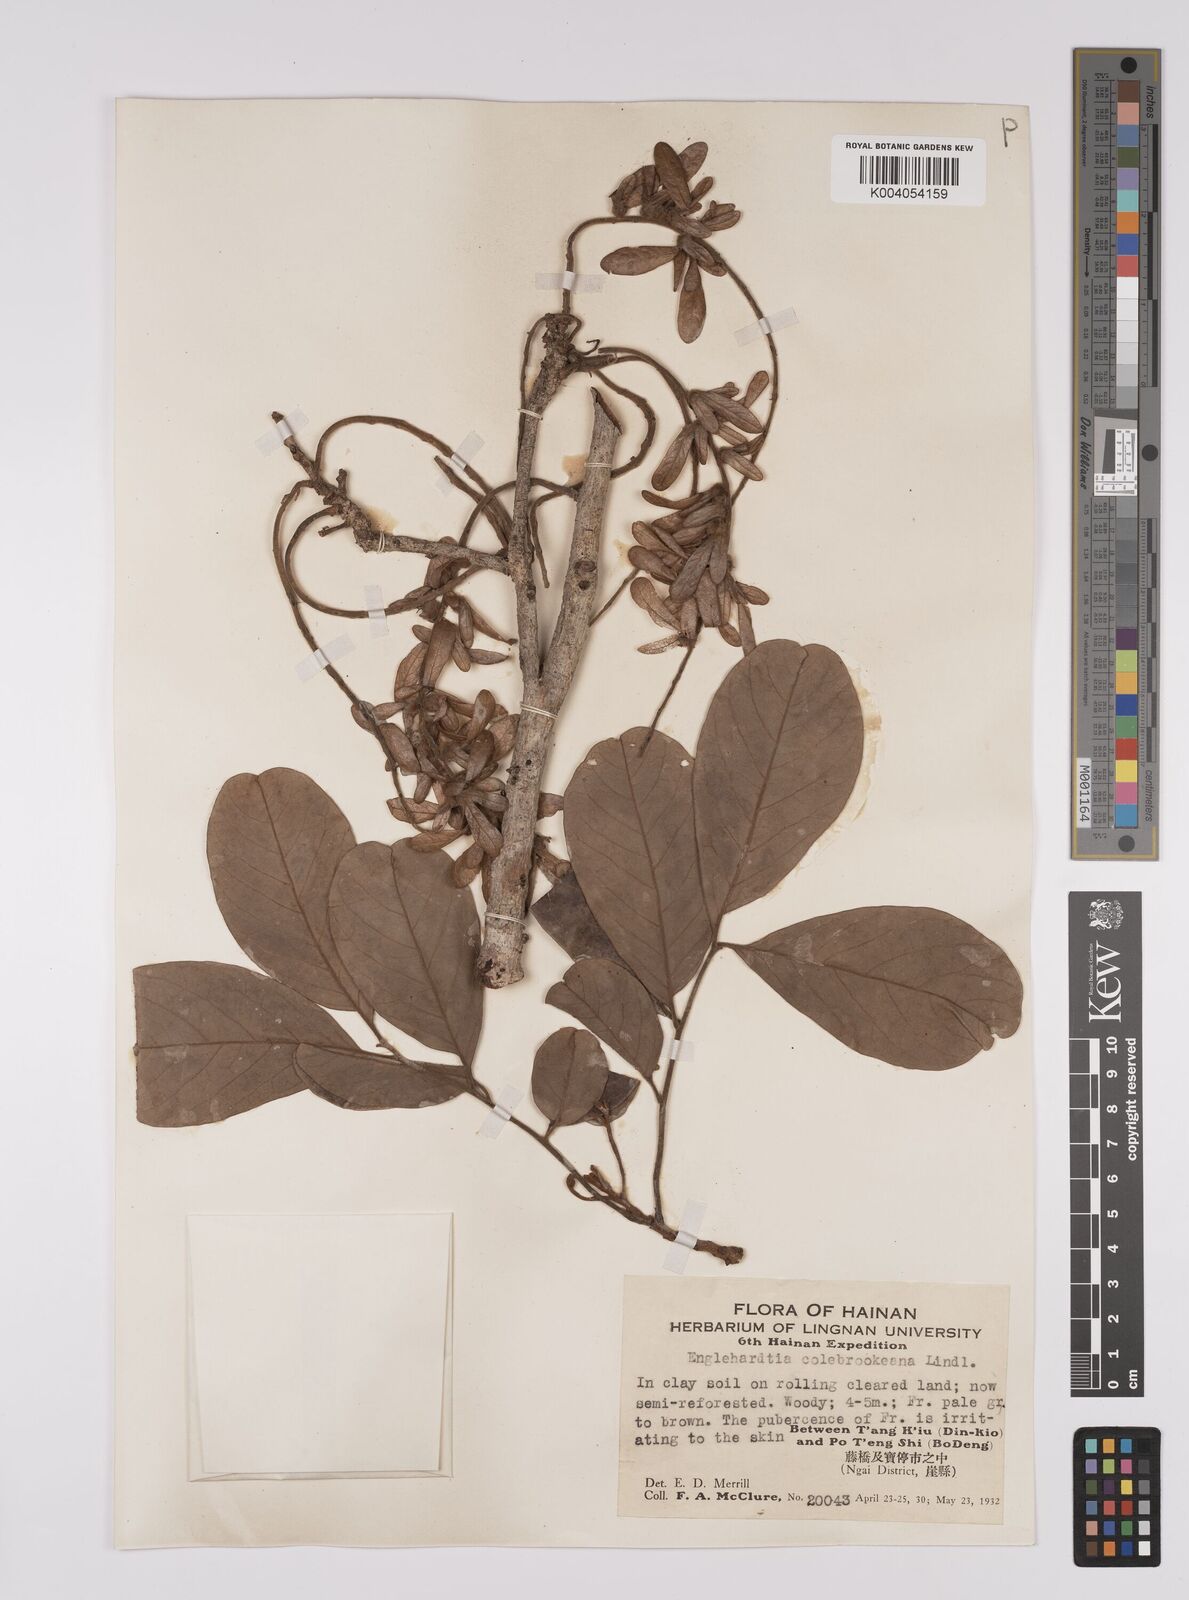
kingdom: Plantae
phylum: Tracheophyta
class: Magnoliopsida
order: Fagales
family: Juglandaceae
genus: Engelhardia
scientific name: Engelhardia spicata
